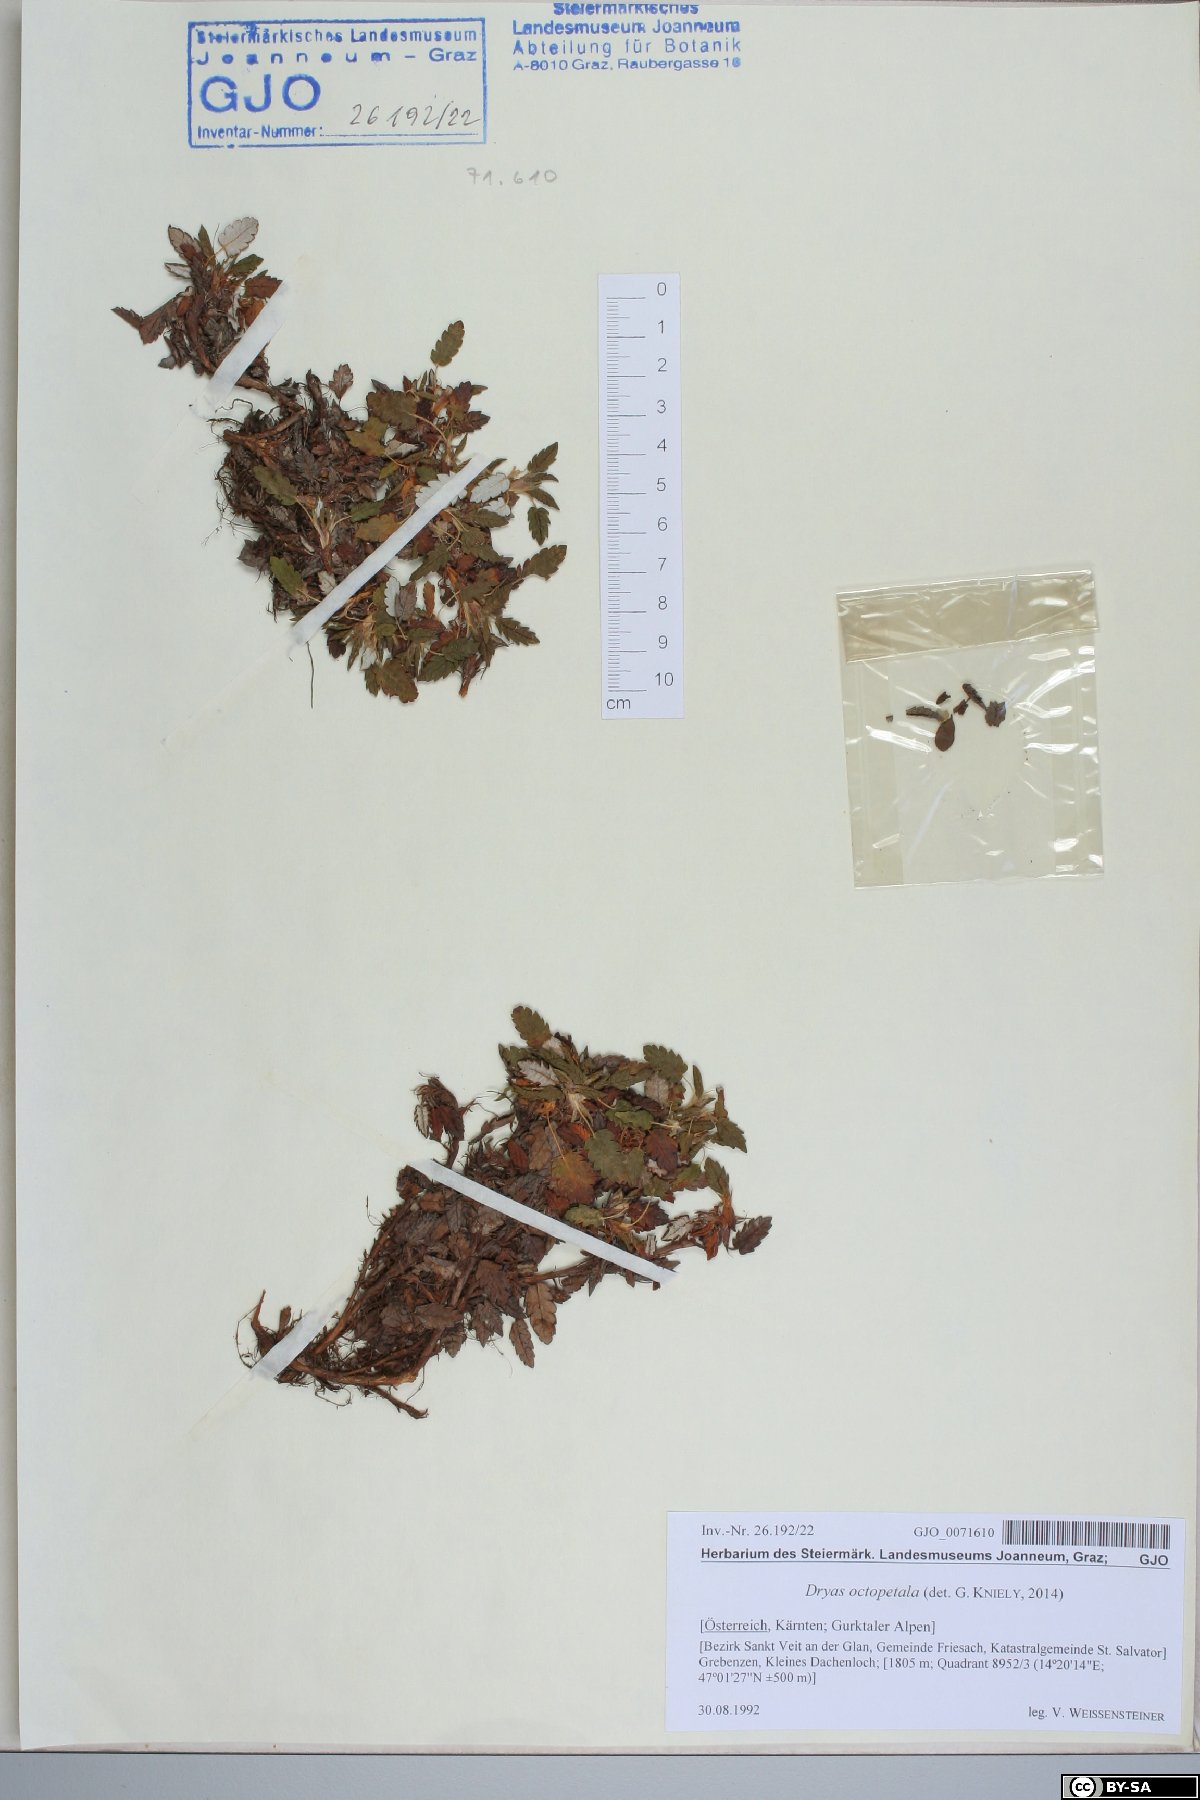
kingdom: Plantae
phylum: Tracheophyta
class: Magnoliopsida
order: Rosales
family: Rosaceae
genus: Dryas
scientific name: Dryas octopetala
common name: Eight-petal mountain-avens
